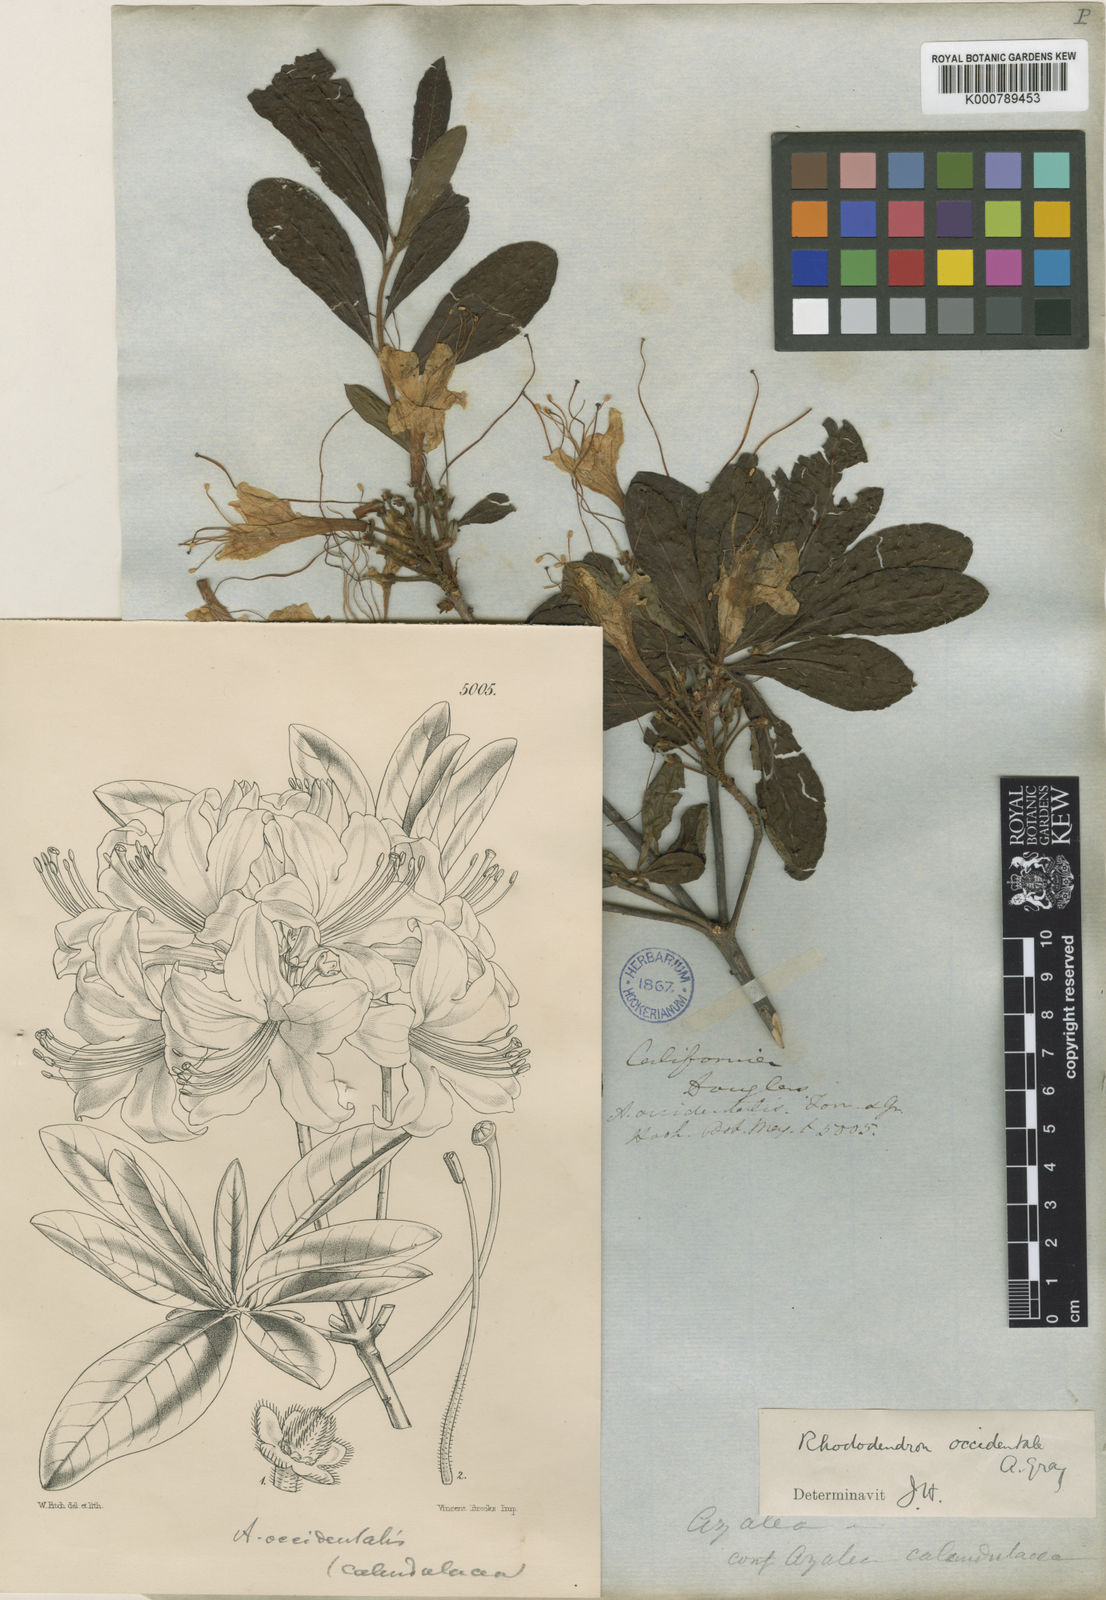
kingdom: Plantae
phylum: Tracheophyta
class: Magnoliopsida
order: Ericales
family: Ericaceae
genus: Rhododendron
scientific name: Rhododendron
